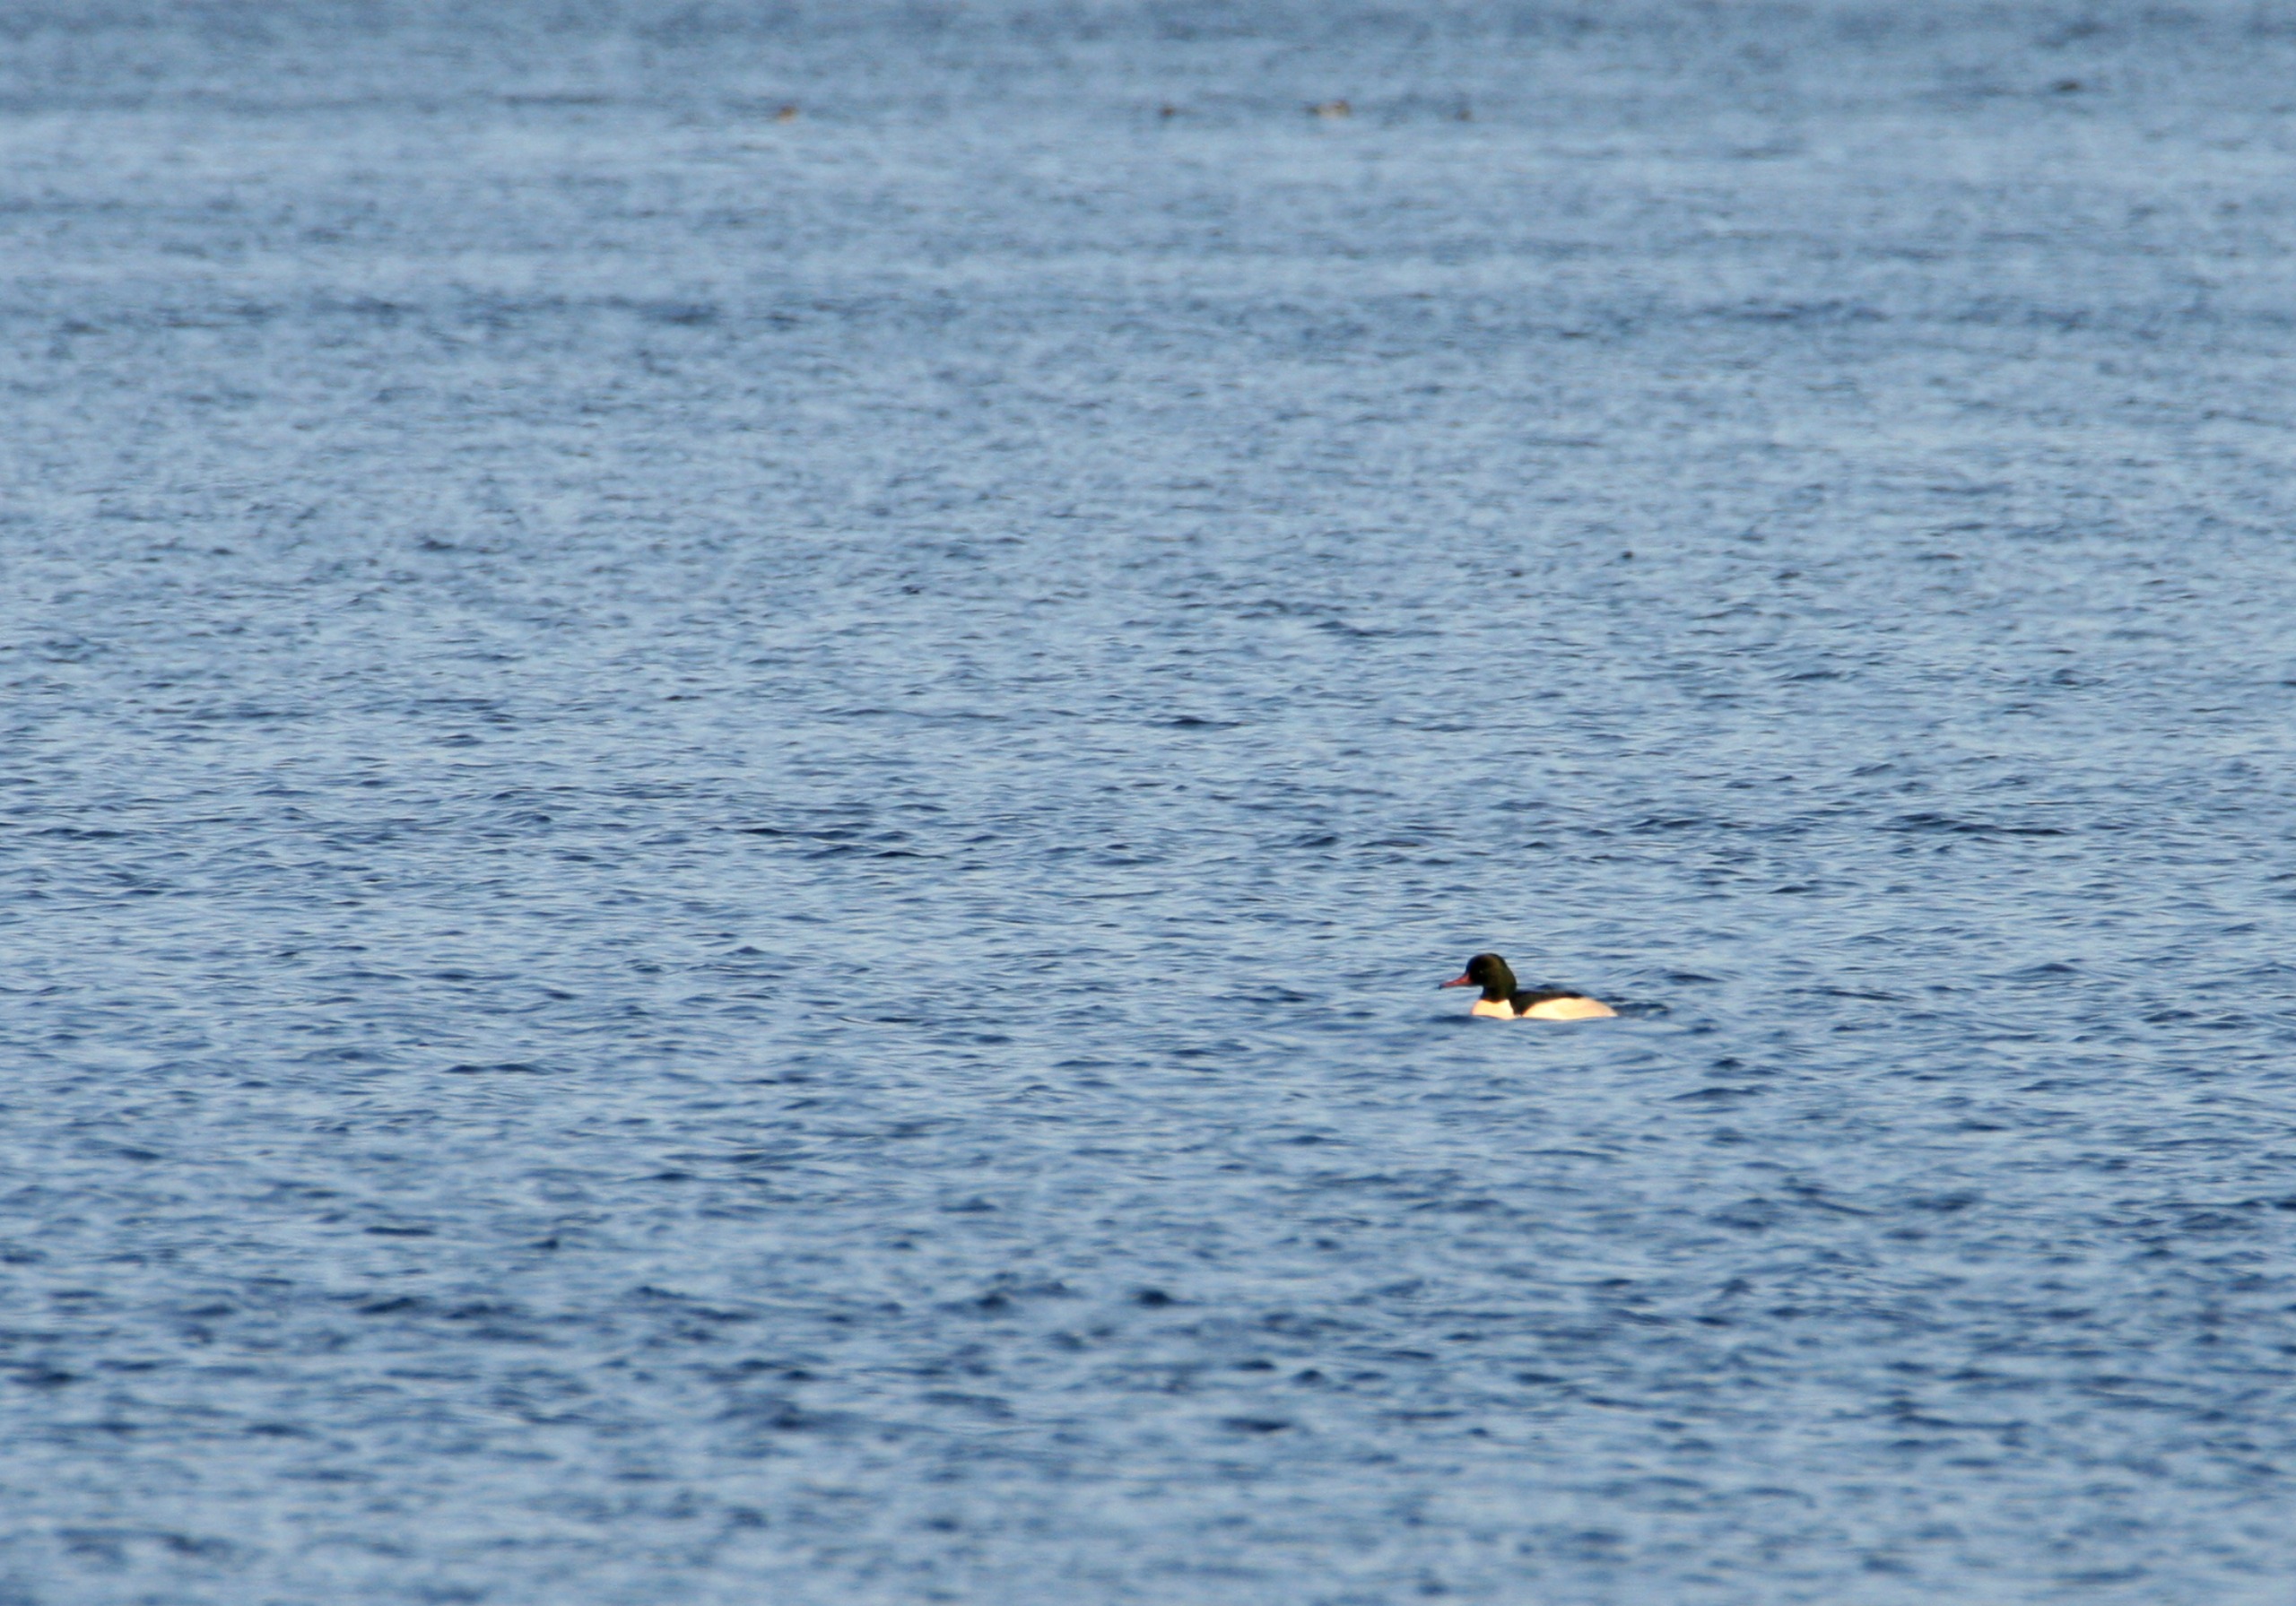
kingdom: Animalia
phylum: Chordata
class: Aves
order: Anseriformes
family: Anatidae
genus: Mergus
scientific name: Mergus merganser
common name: Stor skallesluger
